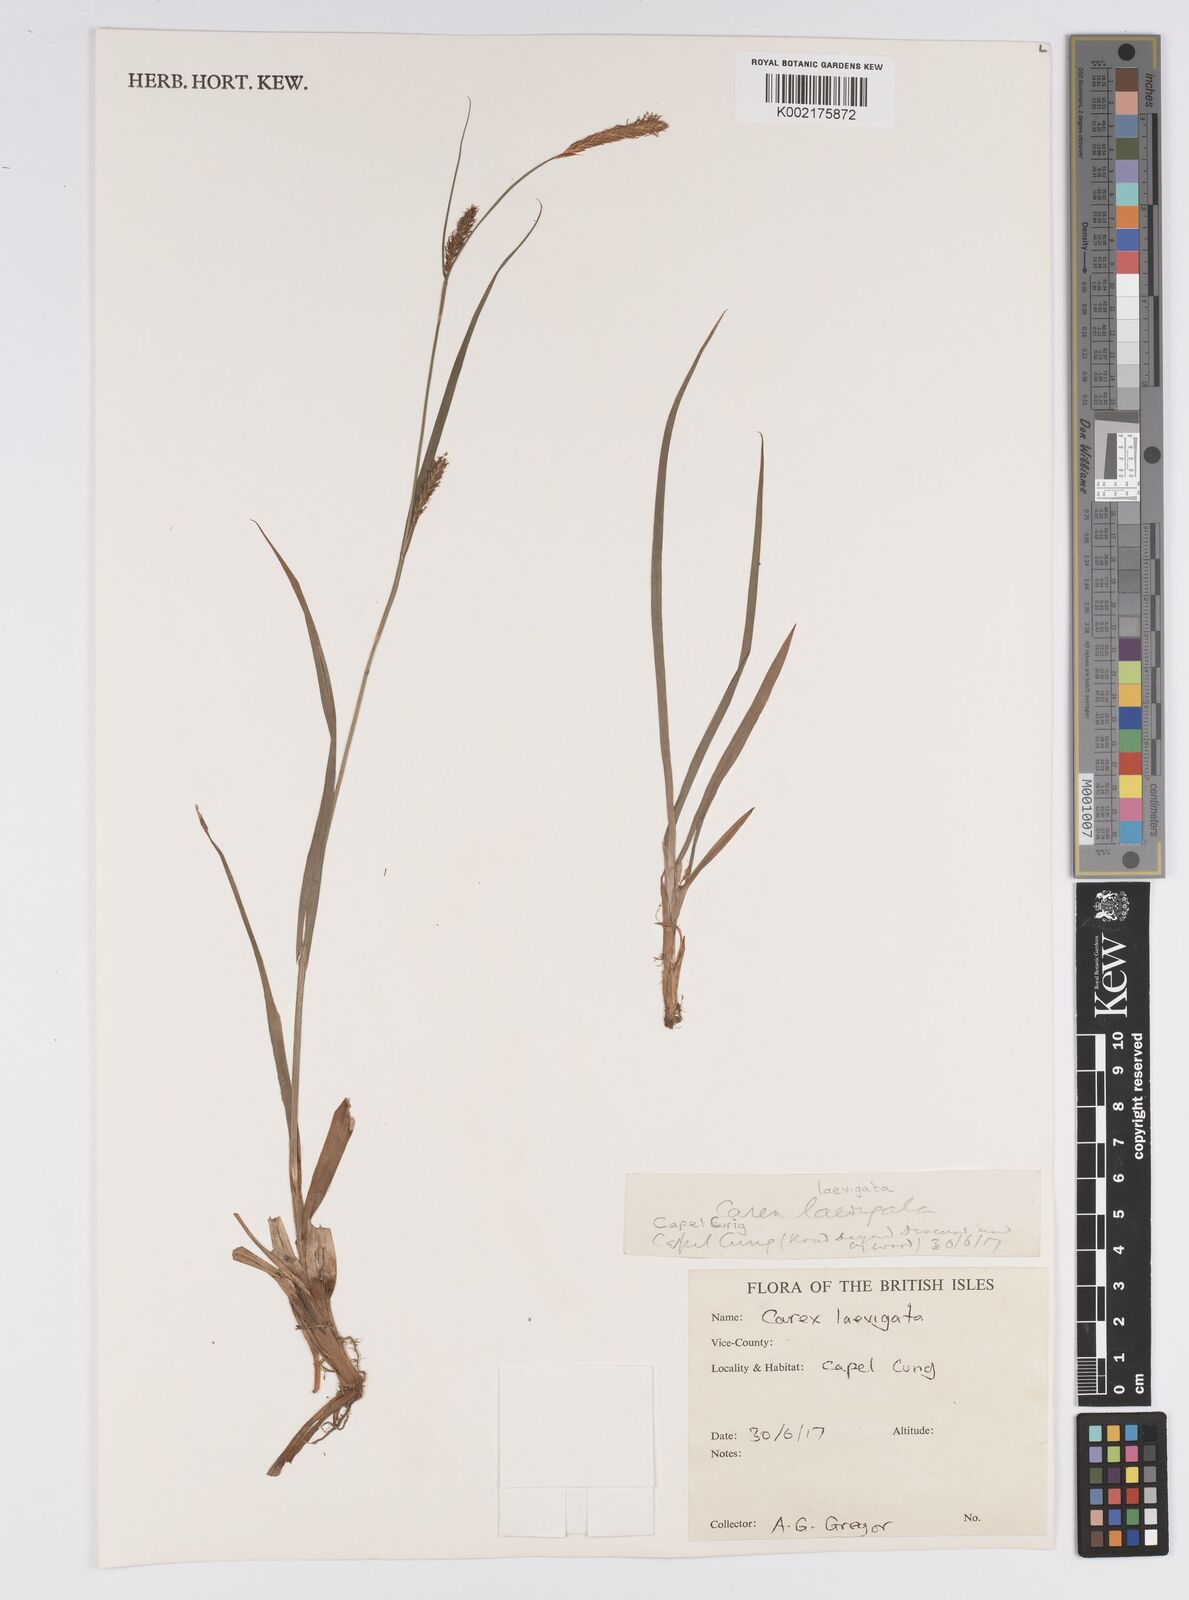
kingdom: Plantae
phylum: Tracheophyta
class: Liliopsida
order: Poales
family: Cyperaceae
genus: Carex
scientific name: Carex laevigata
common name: Smooth-stalked sedge
